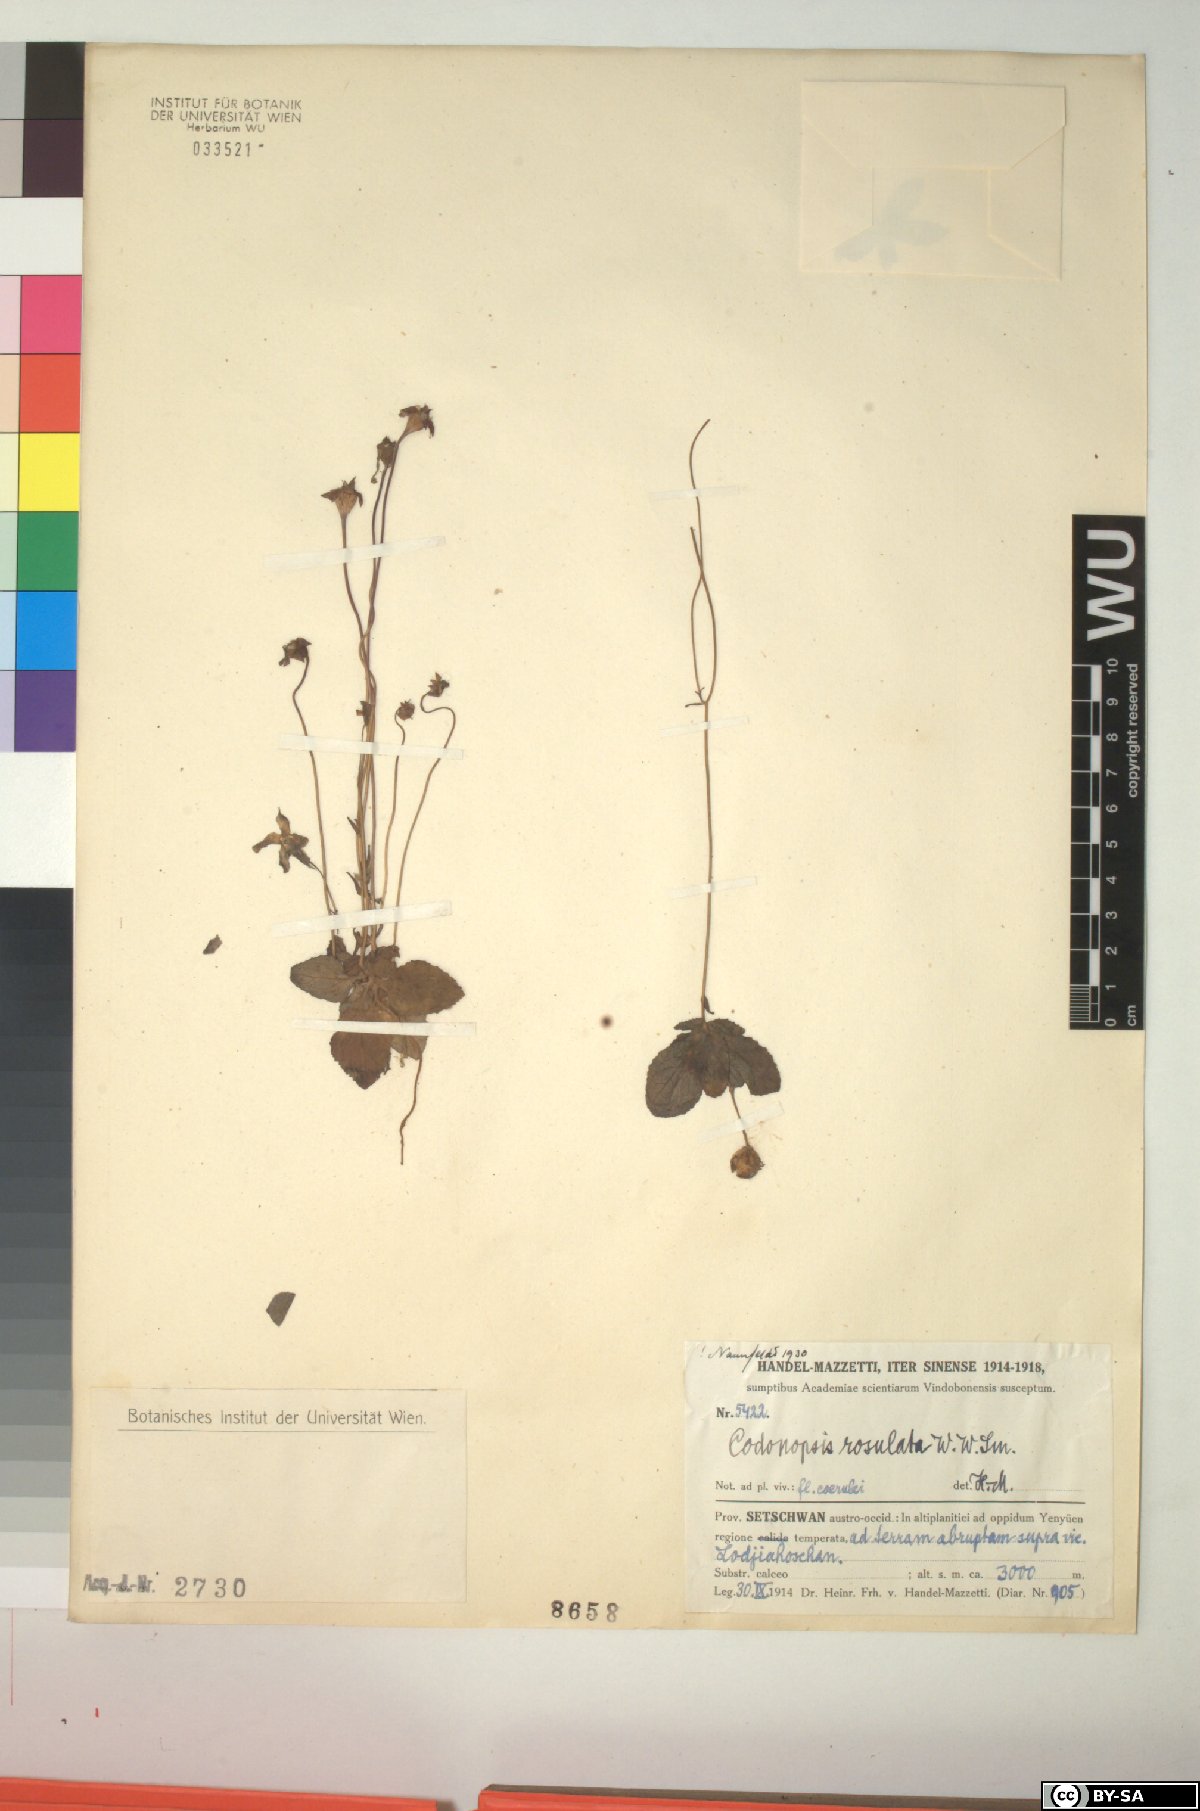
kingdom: Plantae
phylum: Tracheophyta
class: Magnoliopsida
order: Asterales
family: Campanulaceae
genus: Pseudocodon
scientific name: Pseudocodon rosulatus
